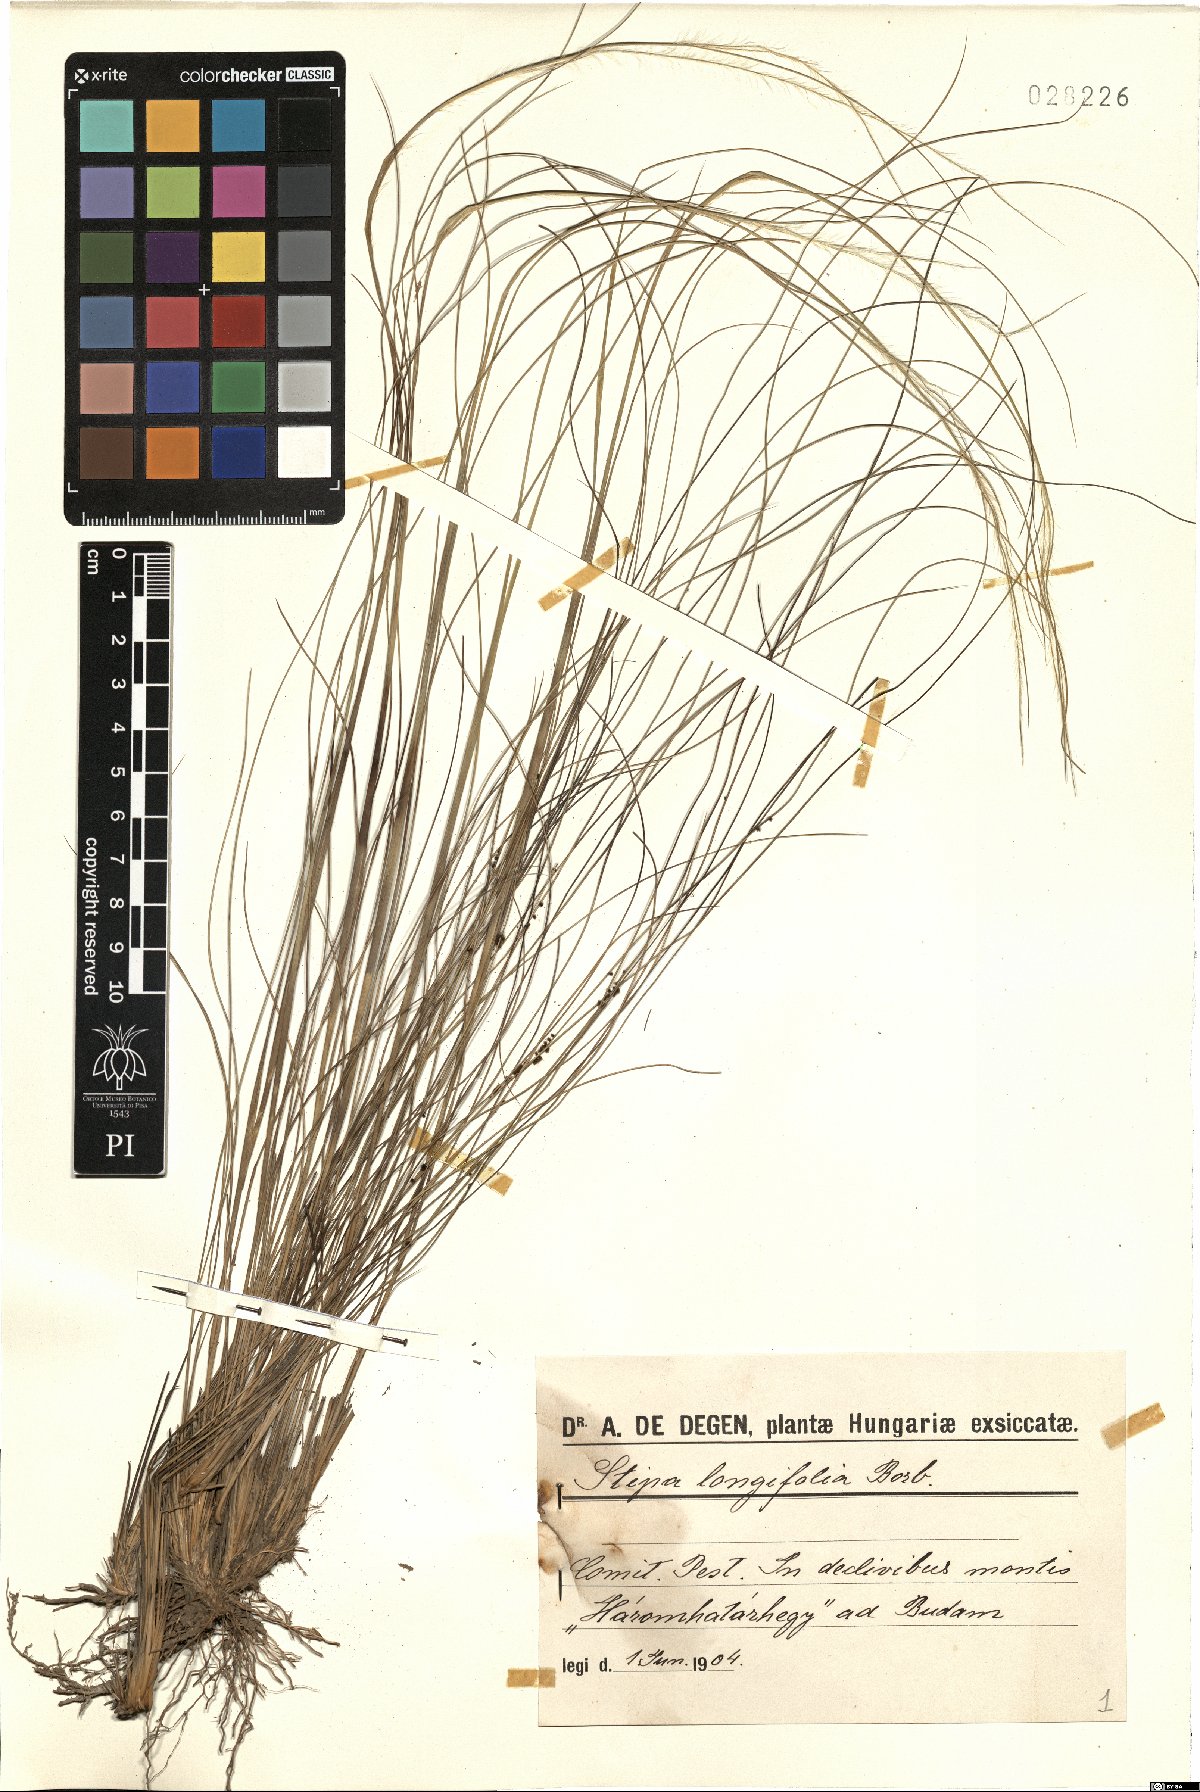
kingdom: Plantae
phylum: Tracheophyta
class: Liliopsida
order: Poales
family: Poaceae
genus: Achnatherum
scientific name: Achnatherum calamagrostis
